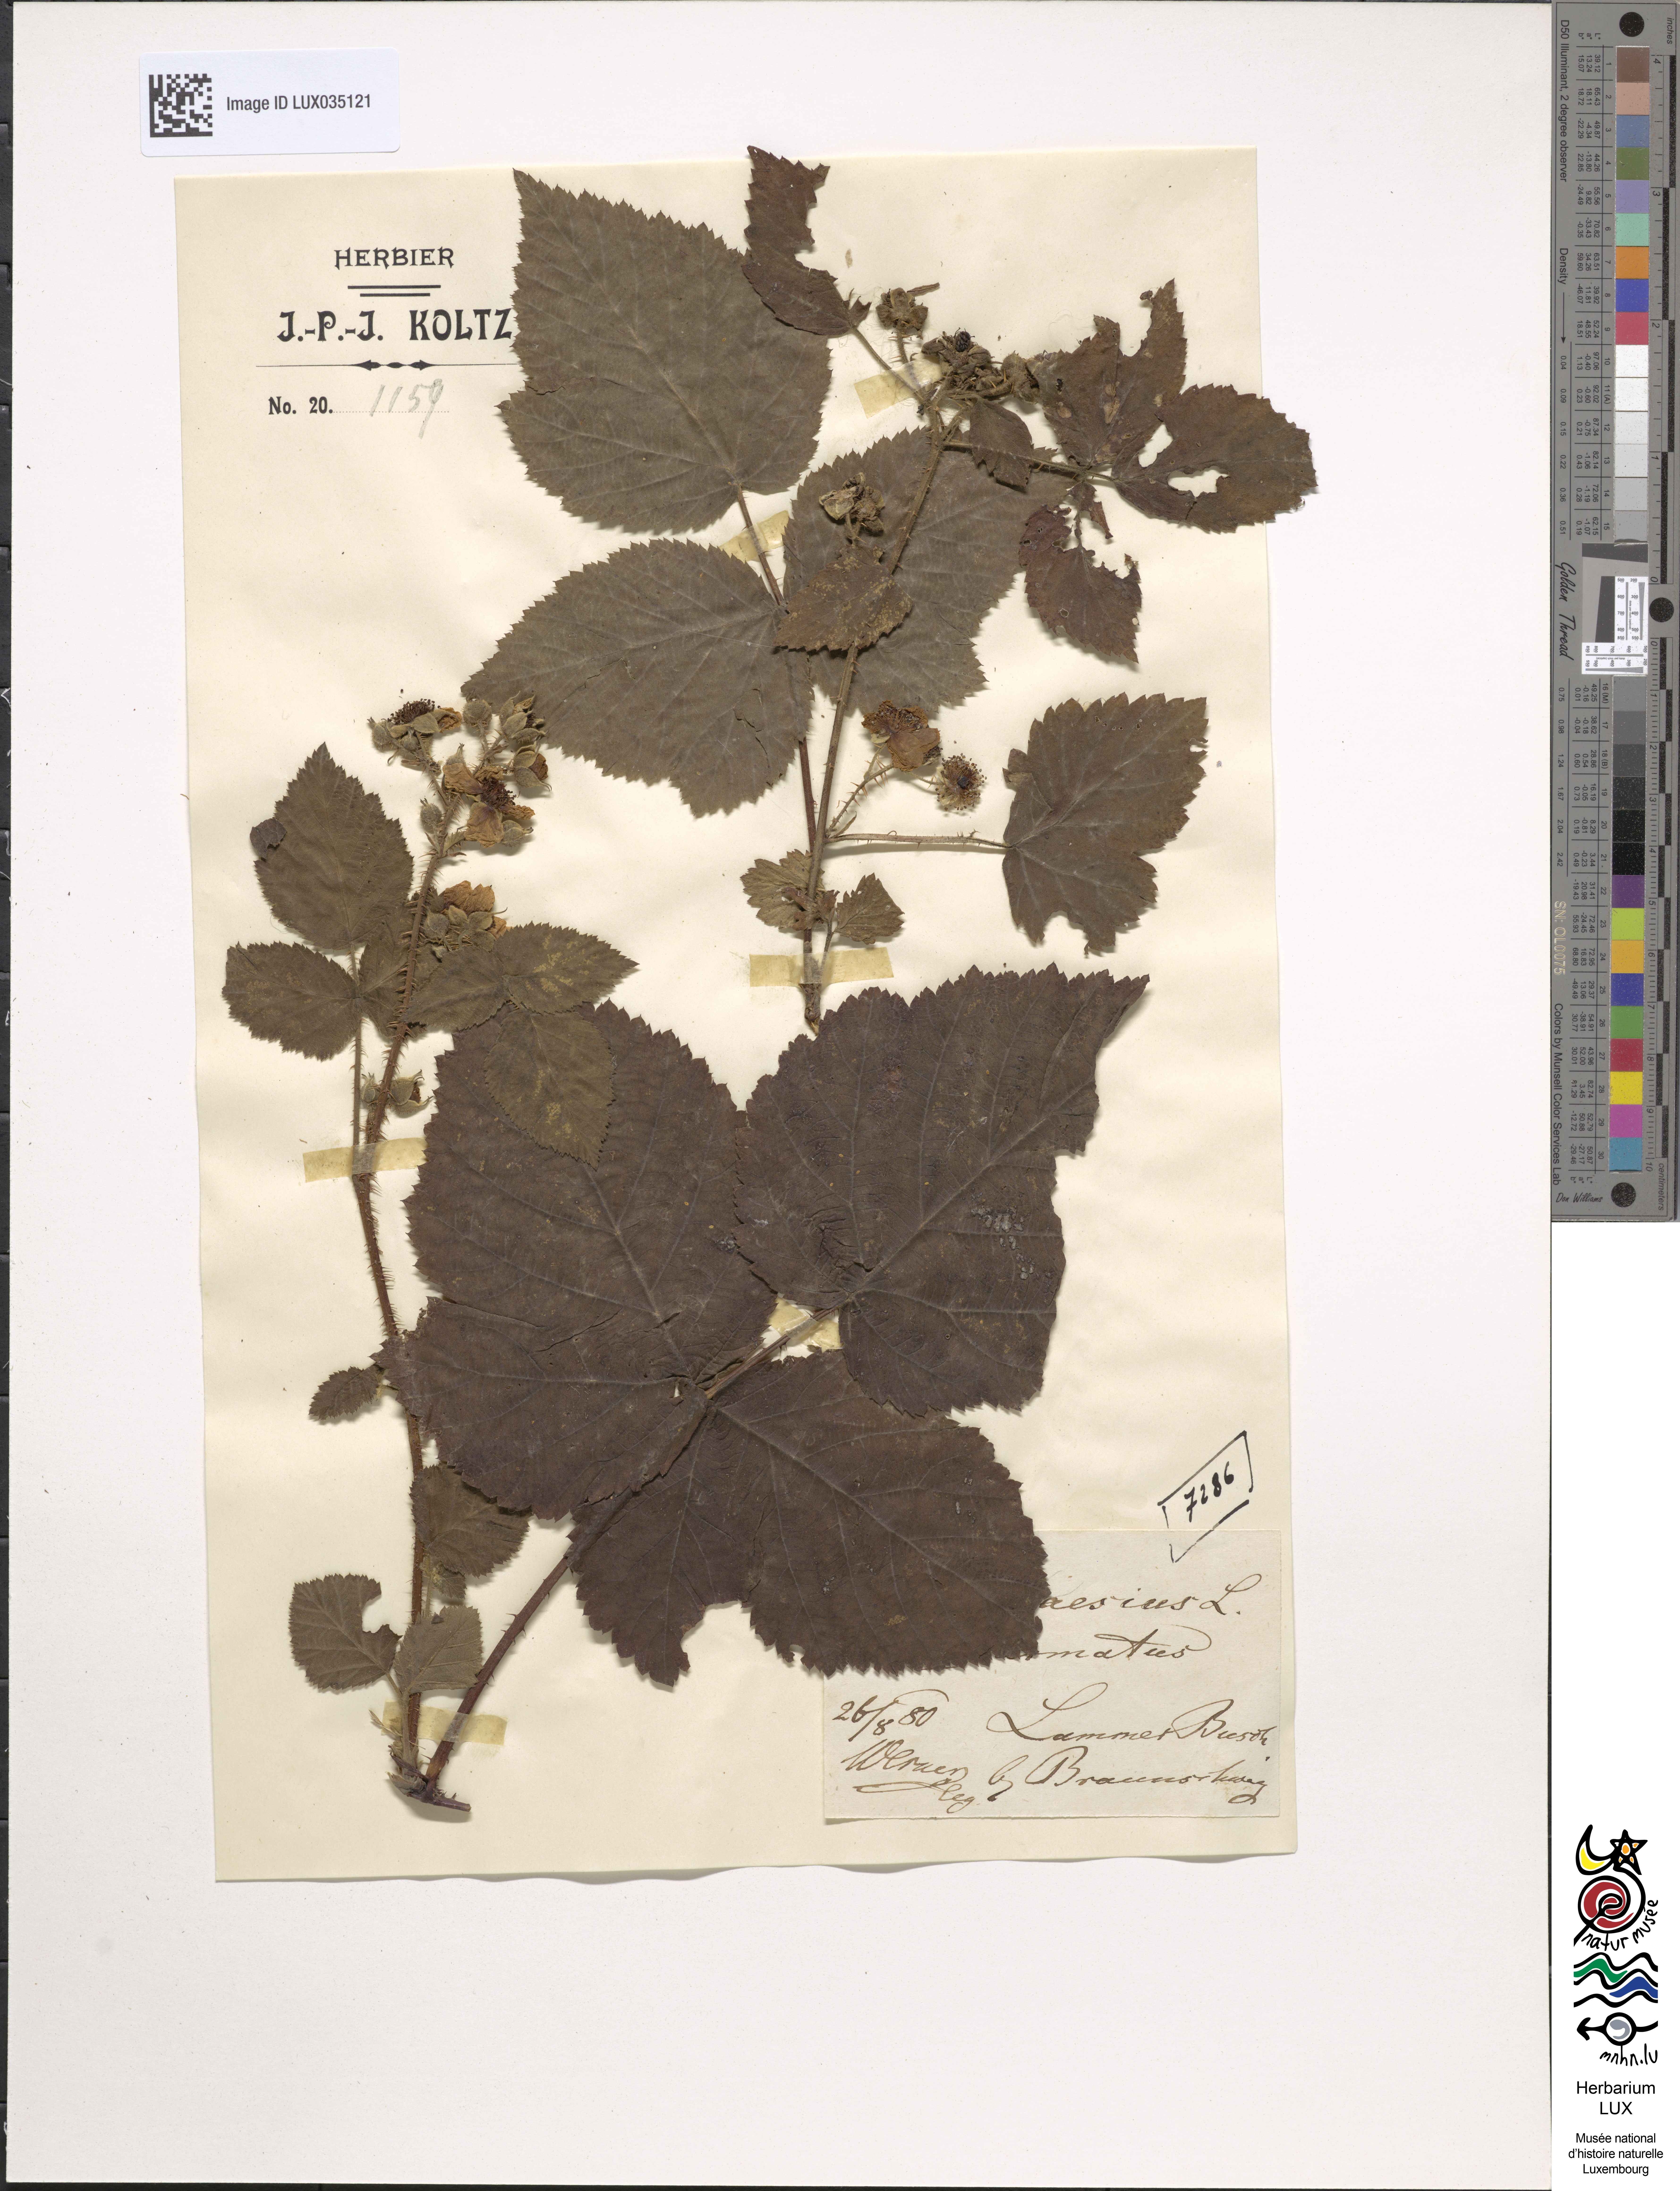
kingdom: Plantae
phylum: Tracheophyta
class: Magnoliopsida
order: Rosales
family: Rosaceae
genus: Rubus
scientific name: Rubus caesius
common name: Dewberry
